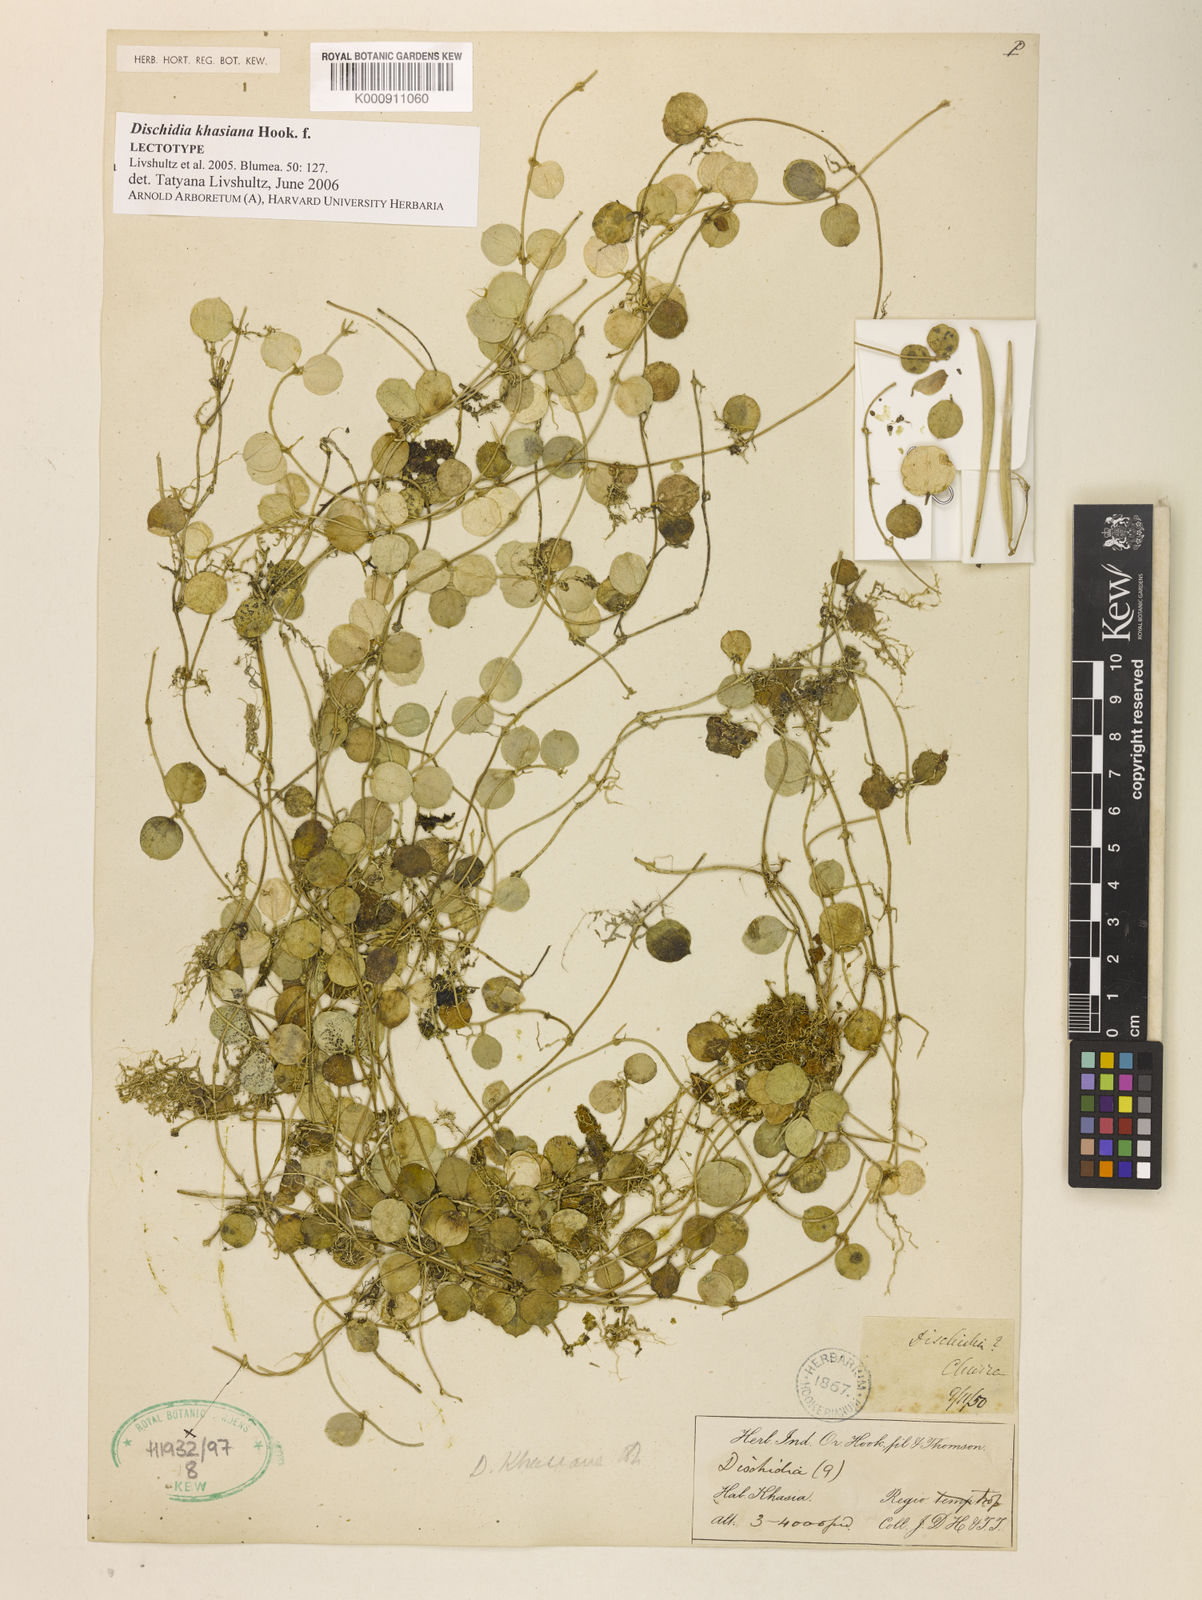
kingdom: Plantae
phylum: Tracheophyta
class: Magnoliopsida
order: Gentianales
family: Apocynaceae
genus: Dischidia
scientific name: Dischidia khasiana
